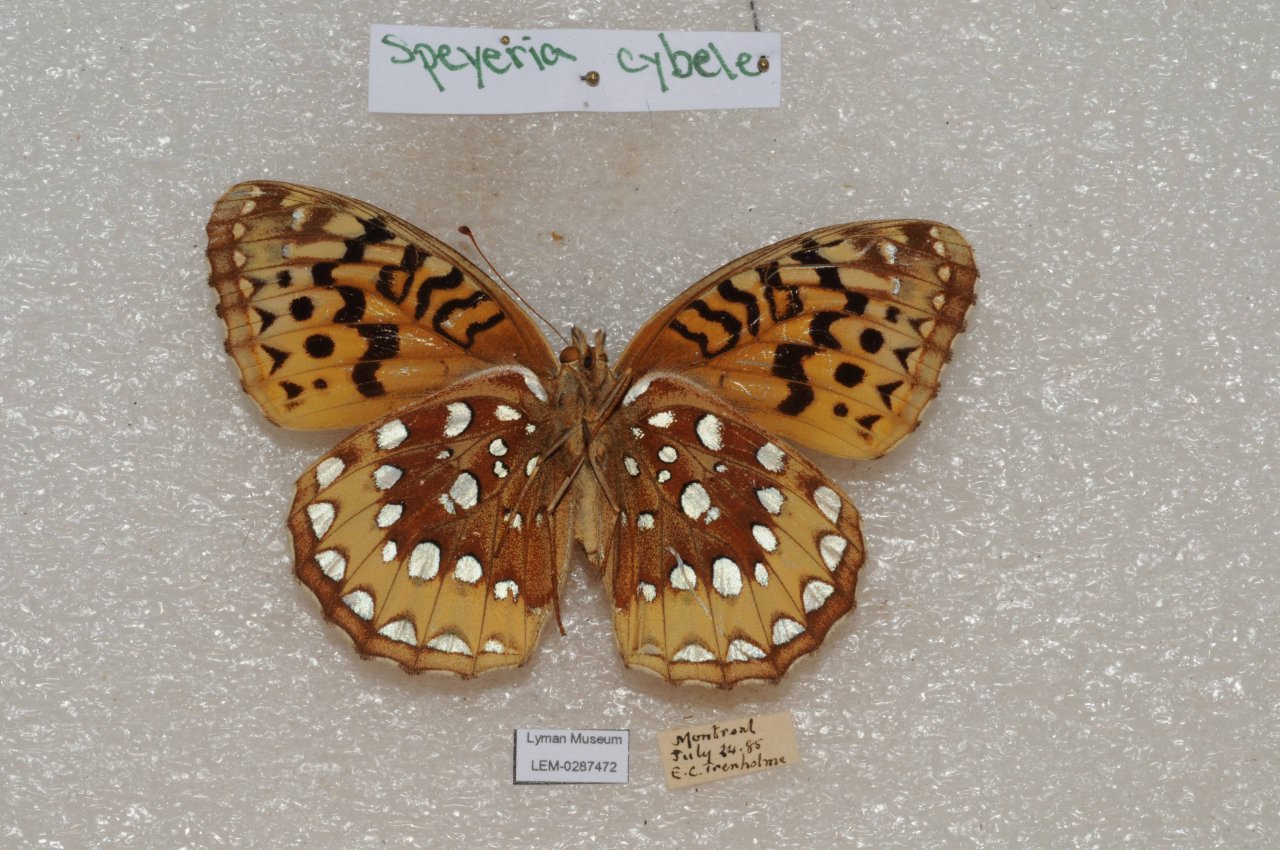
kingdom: Animalia
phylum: Arthropoda
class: Insecta
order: Lepidoptera
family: Nymphalidae
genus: Speyeria
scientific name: Speyeria cybele
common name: Great Spangled Fritillary
